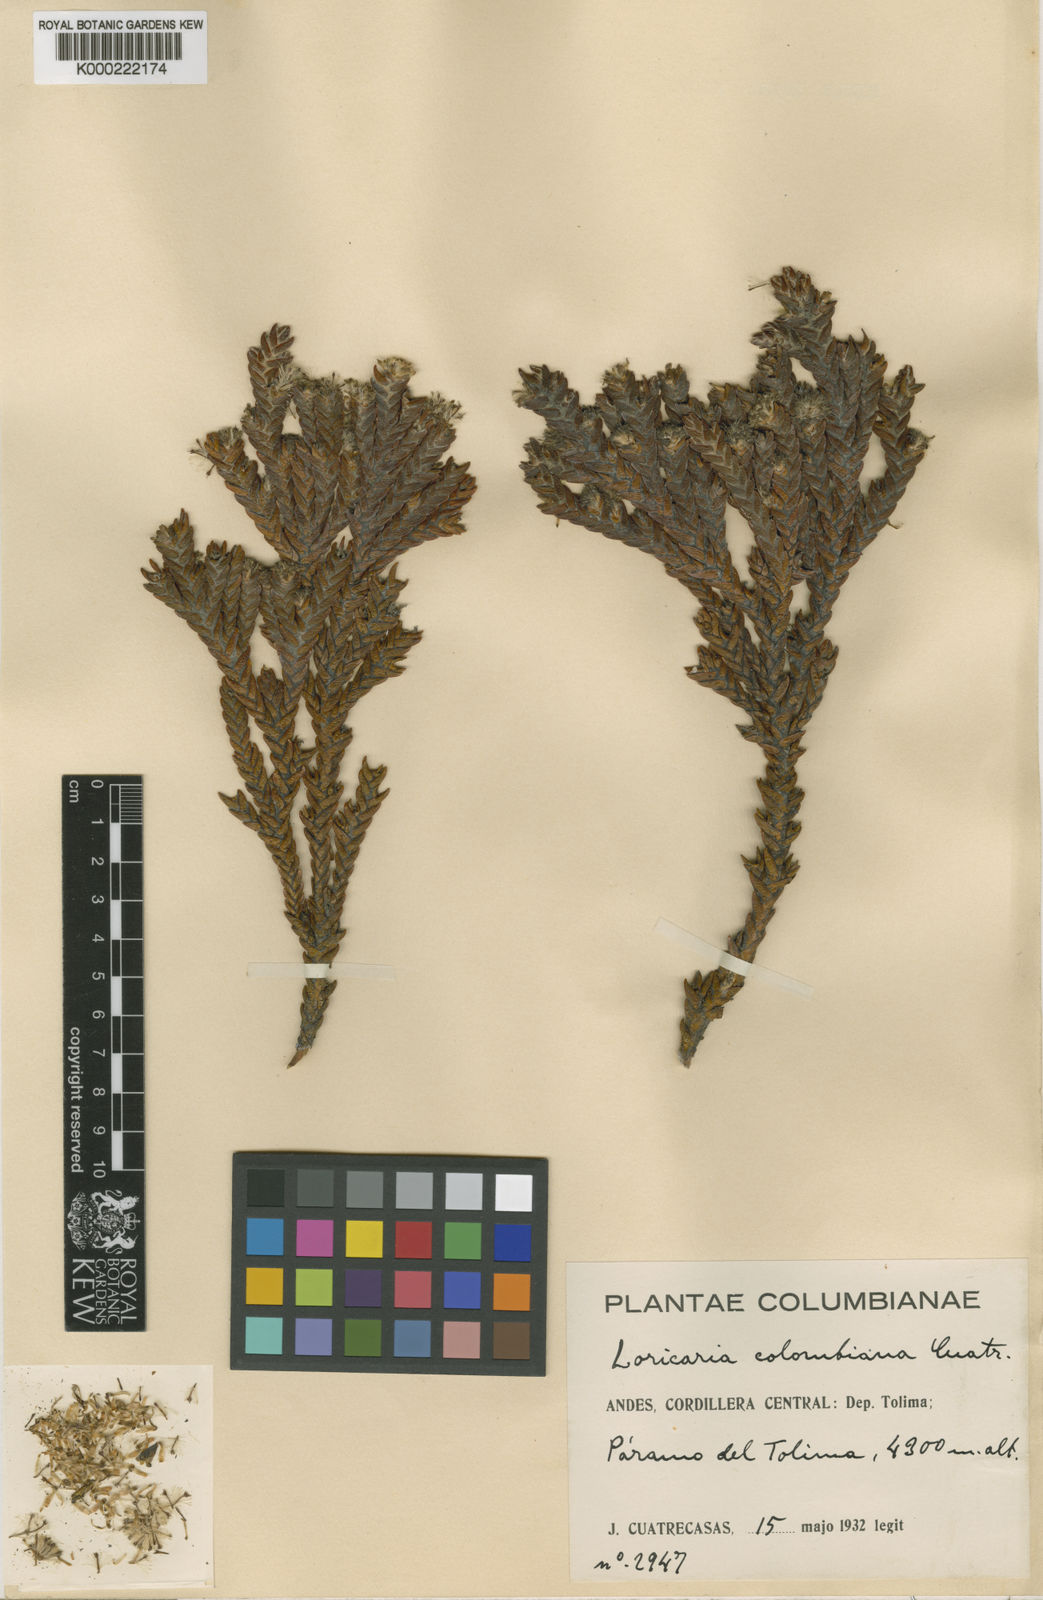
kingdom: Plantae
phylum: Tracheophyta
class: Magnoliopsida
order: Asterales
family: Asteraceae
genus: Andicolea
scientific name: Andicolea colombiana
